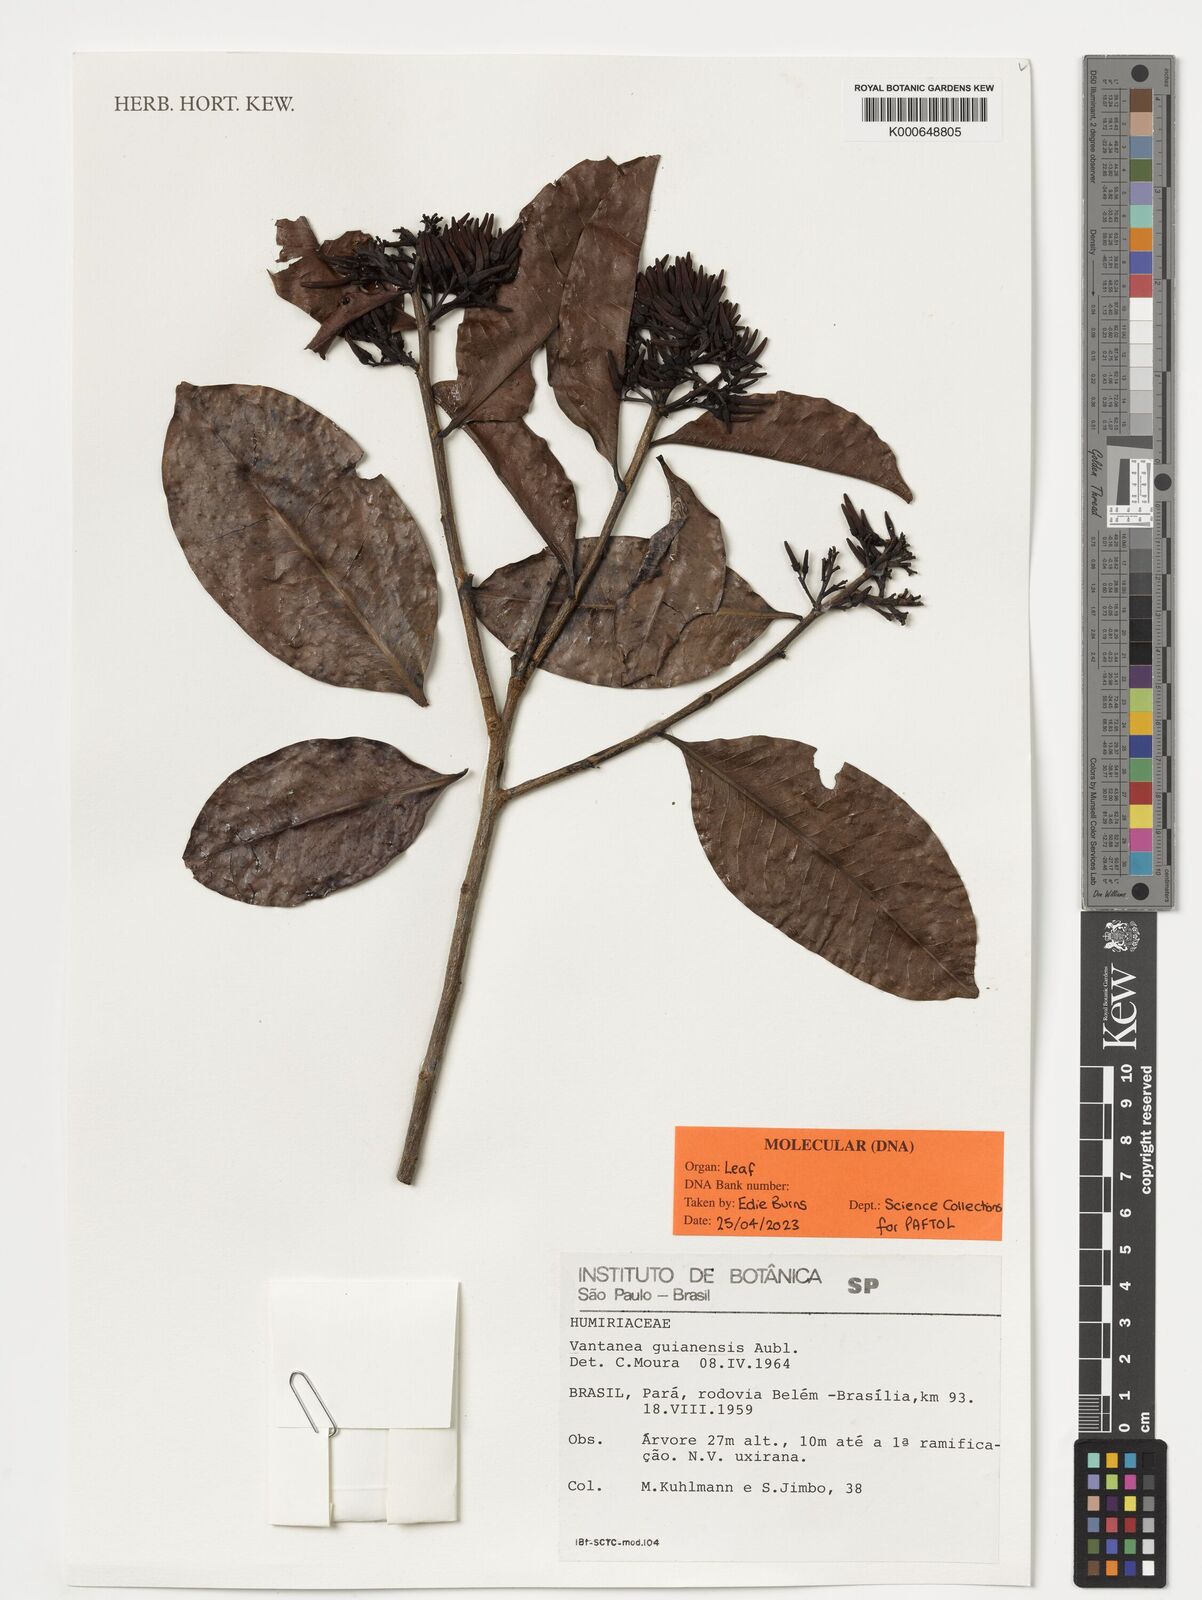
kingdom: Plantae
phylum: Tracheophyta
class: Magnoliopsida
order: Malpighiales
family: Humiriaceae
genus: Vantanea
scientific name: Vantanea guianensis
